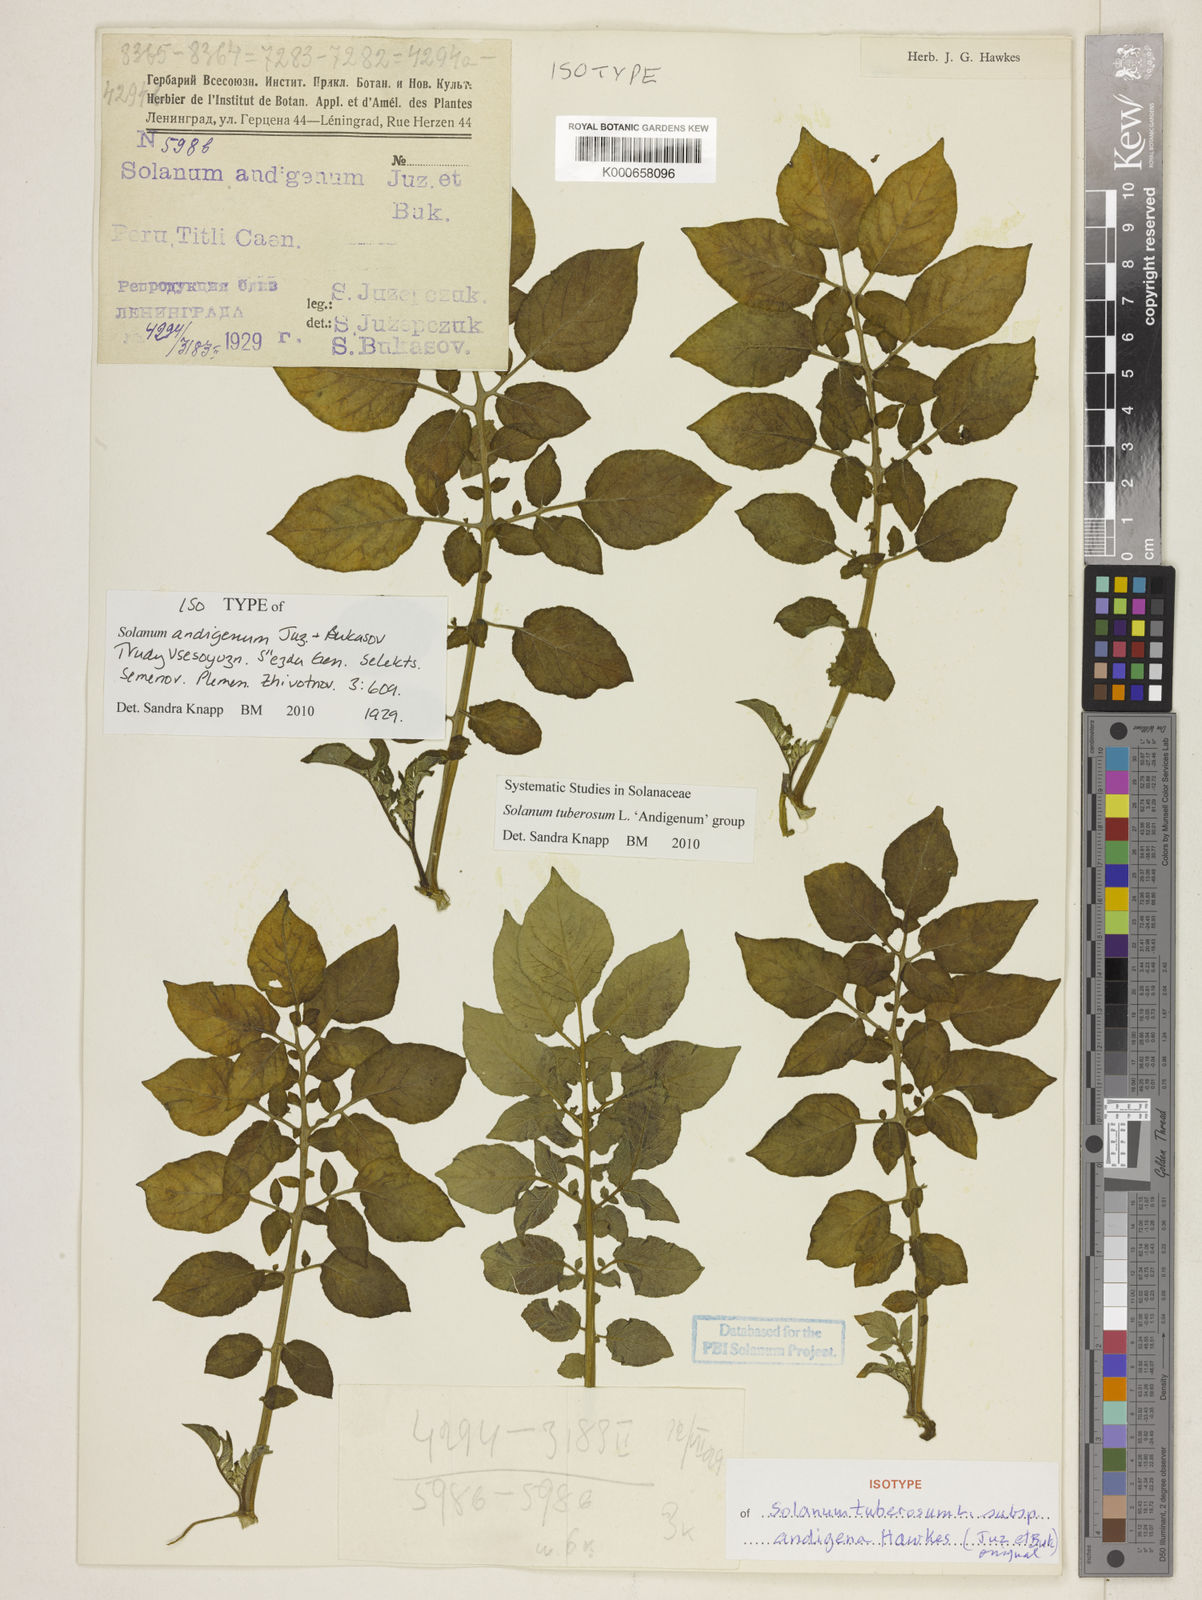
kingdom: Plantae
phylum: Tracheophyta
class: Magnoliopsida
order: Solanales
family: Solanaceae
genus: Solanum
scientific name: Solanum tuberosum
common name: Potato
